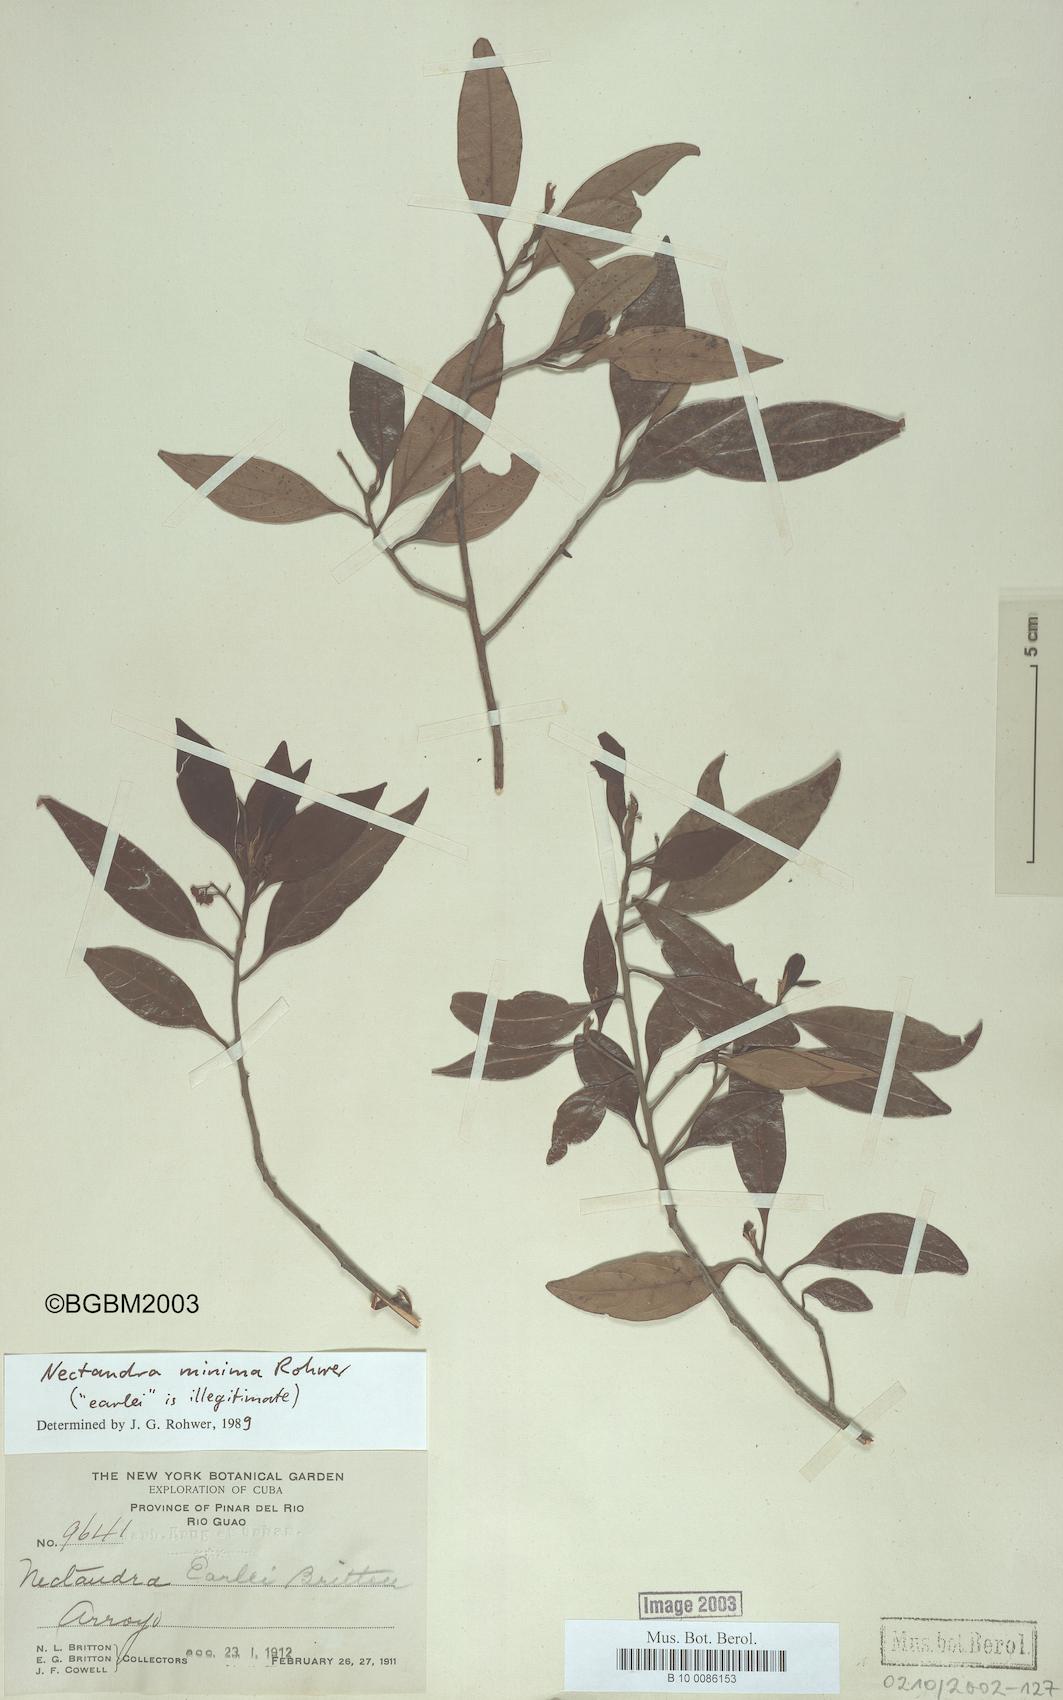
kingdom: Plantae
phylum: Tracheophyta
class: Magnoliopsida
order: Laurales
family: Lauraceae
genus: Damburneya
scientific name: Damburneya minima
